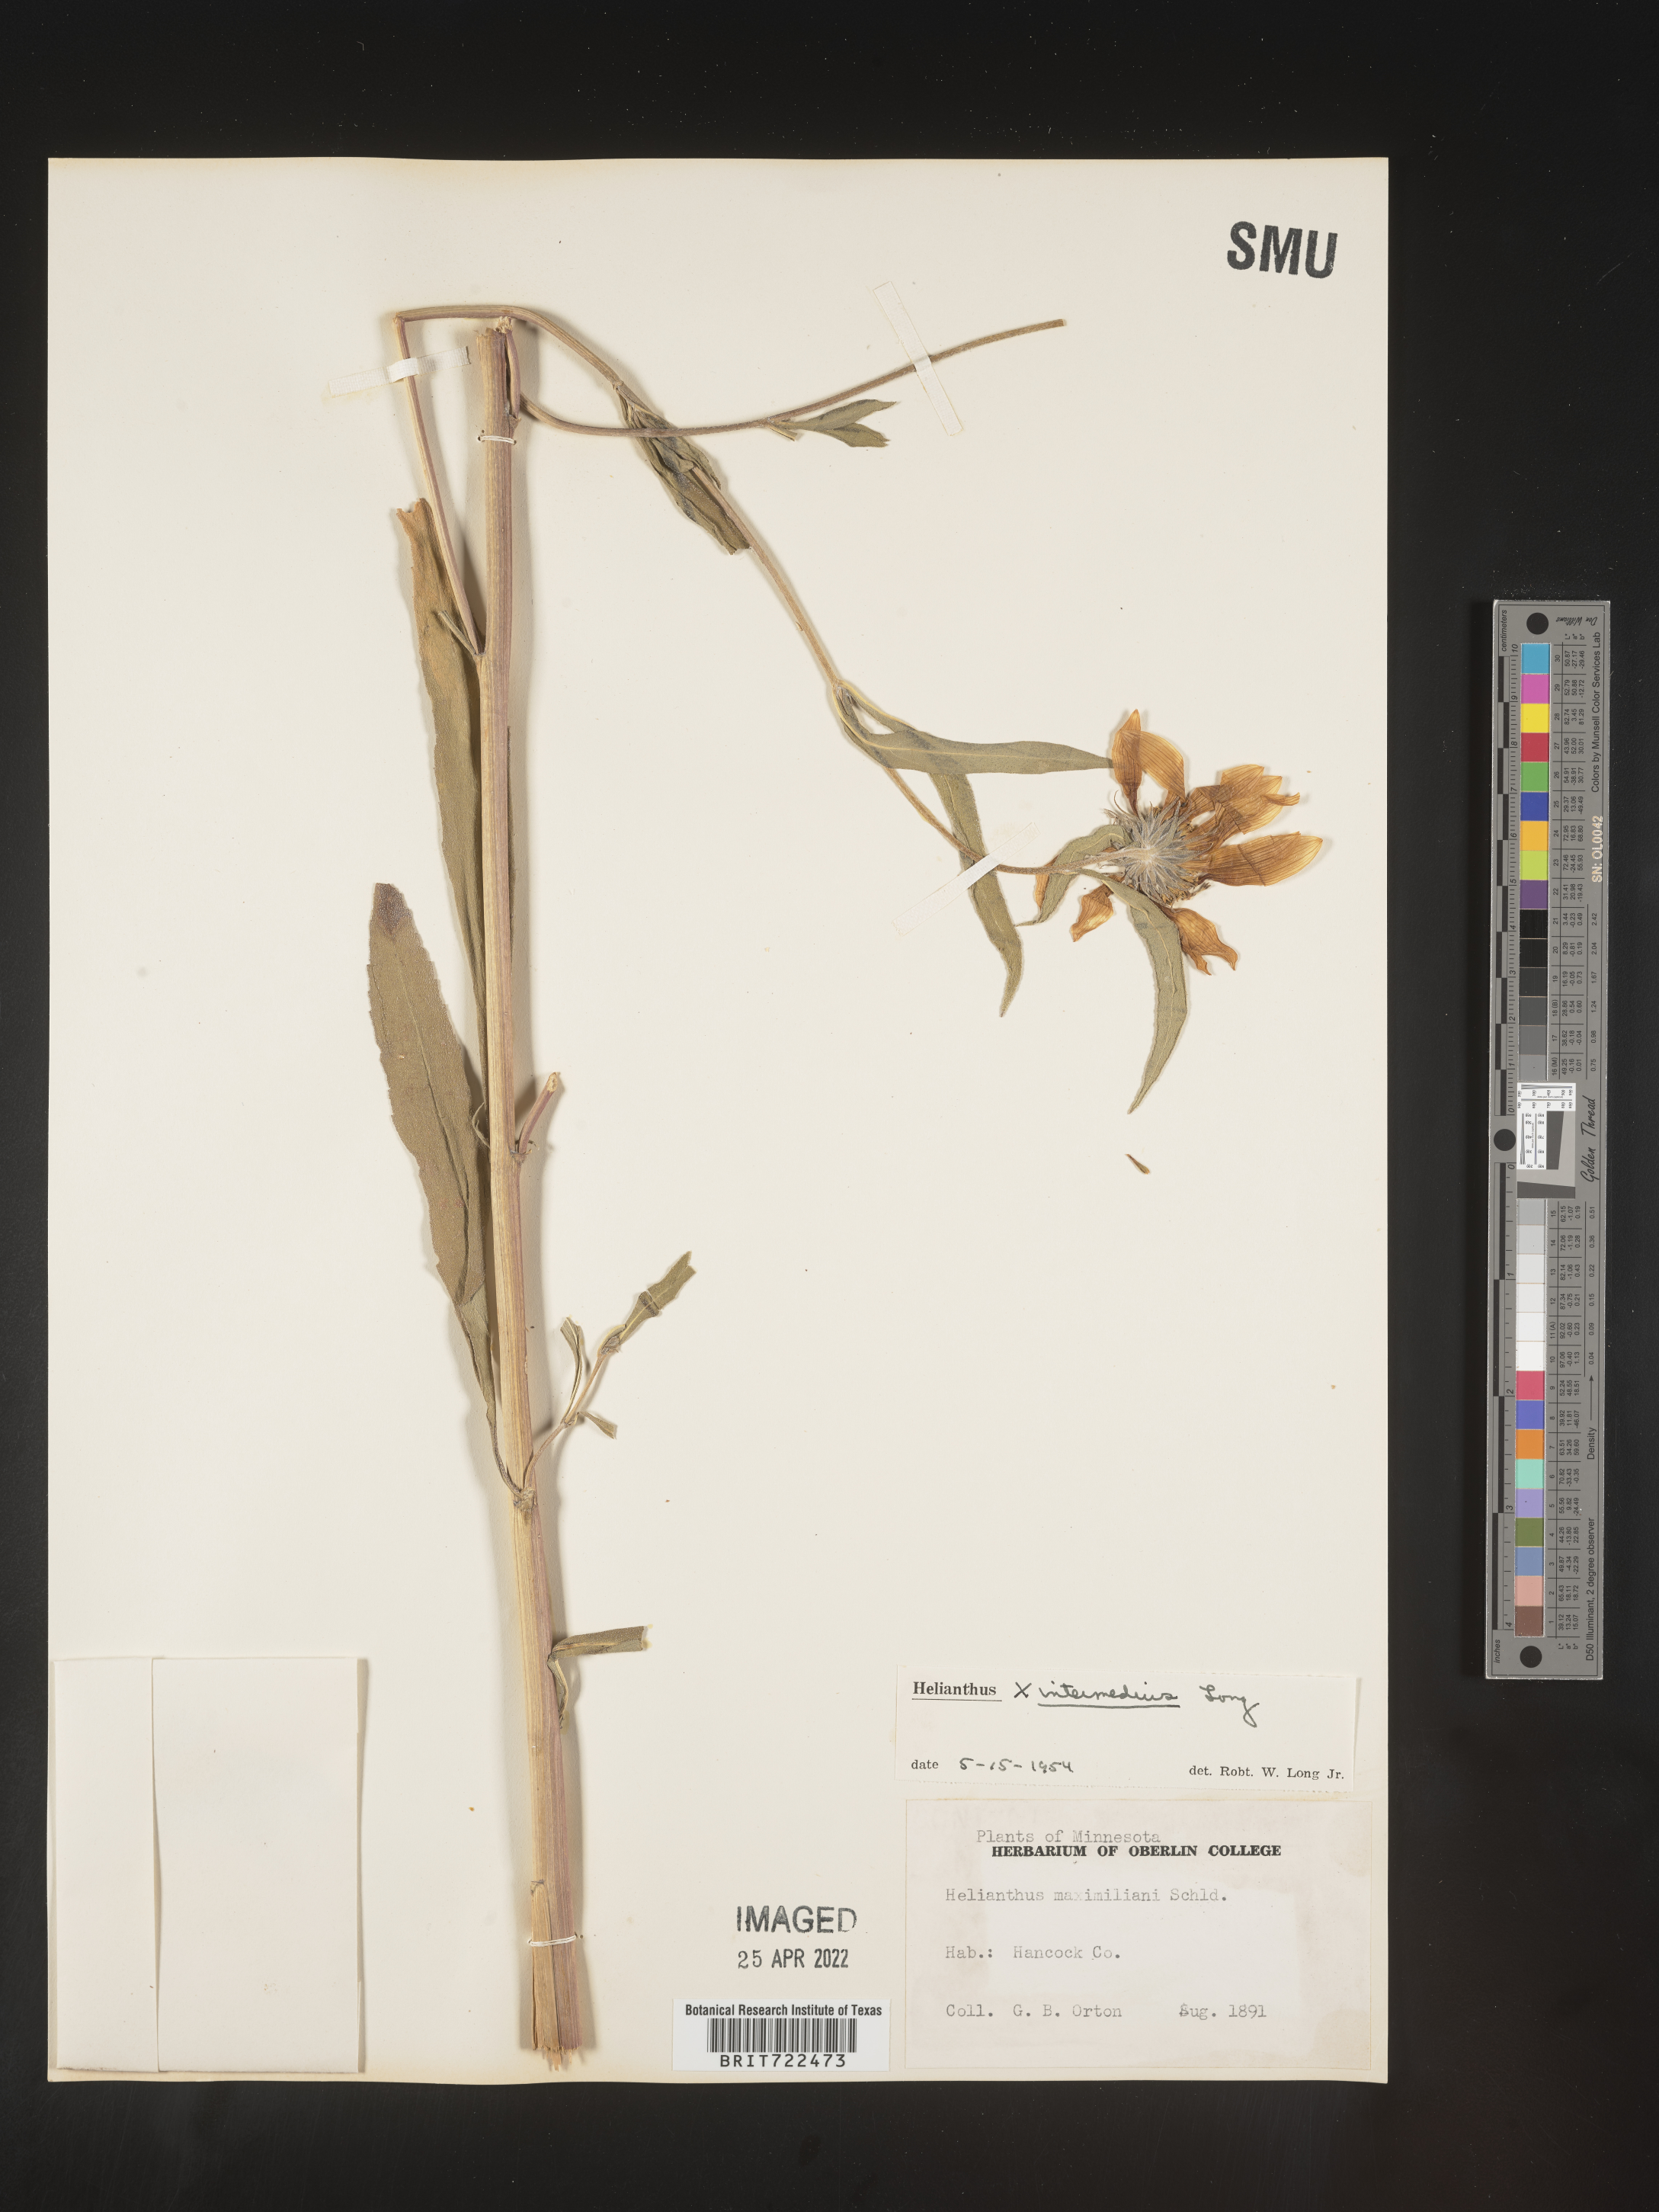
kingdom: Plantae
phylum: Tracheophyta
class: Magnoliopsida
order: Asterales
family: Asteraceae
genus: Helianthus
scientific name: Helianthus
